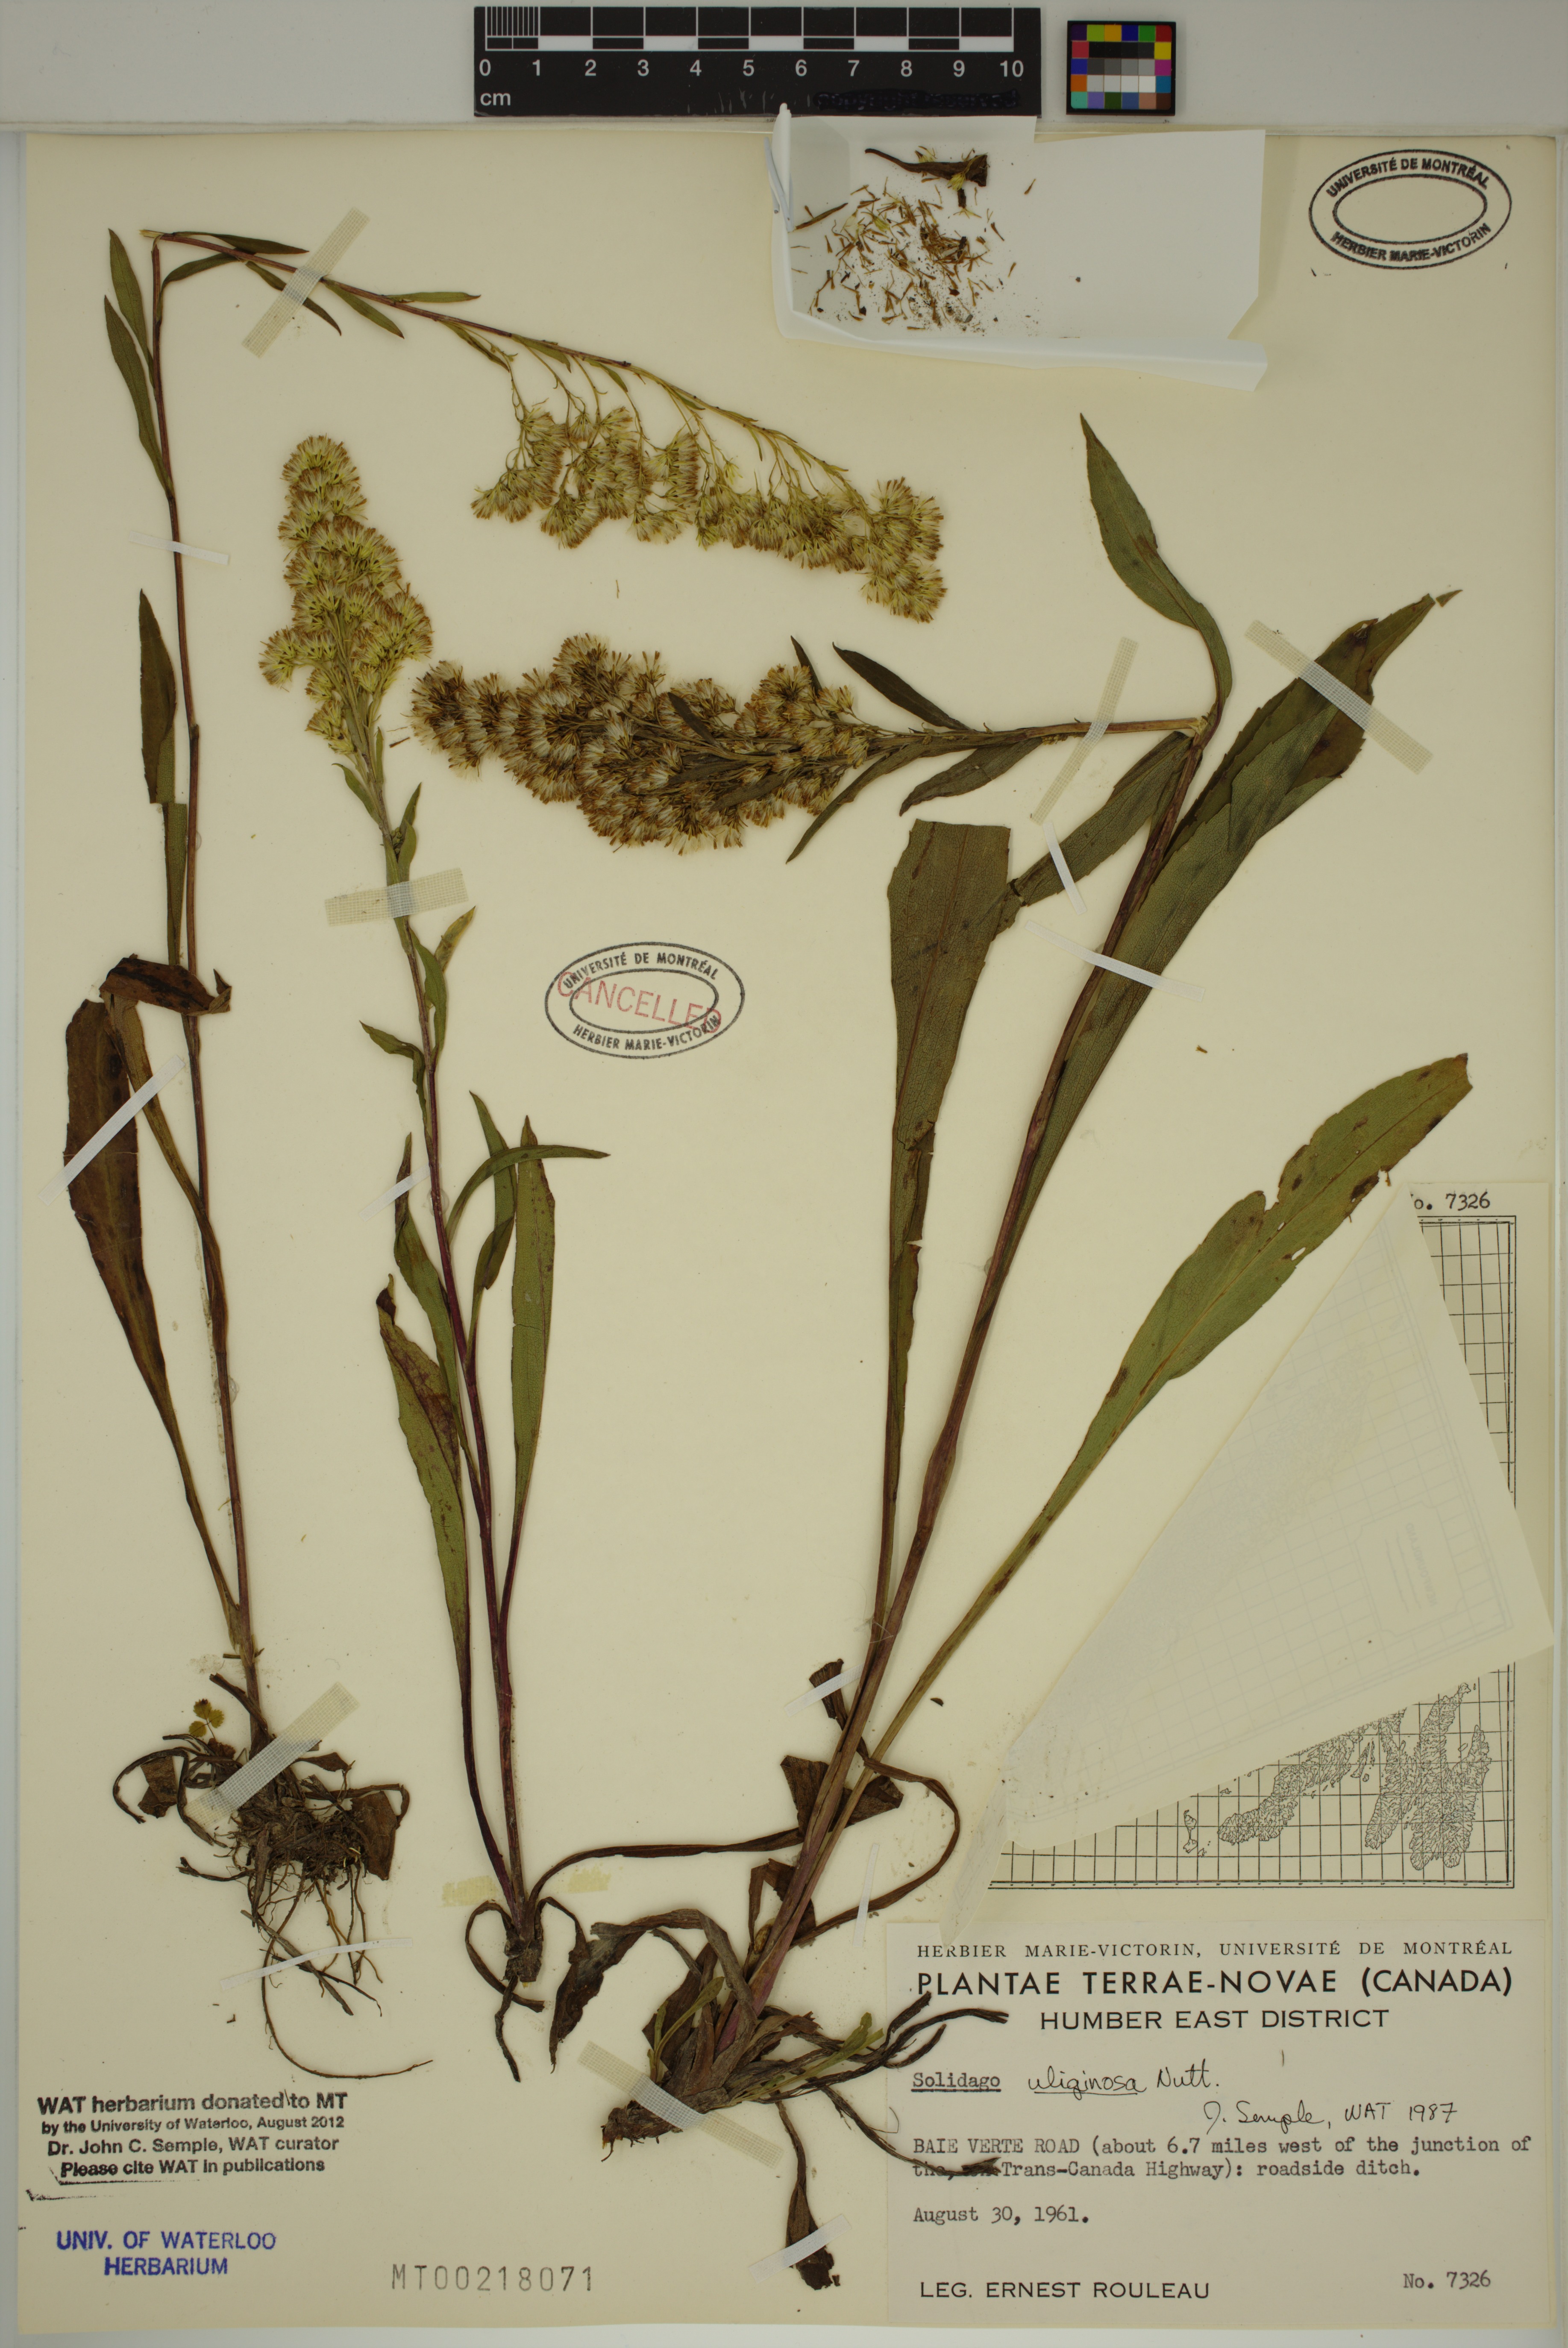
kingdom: Plantae
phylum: Tracheophyta
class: Magnoliopsida
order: Asterales
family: Asteraceae
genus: Solidago
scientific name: Solidago uliginosa
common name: Bog goldenrod
